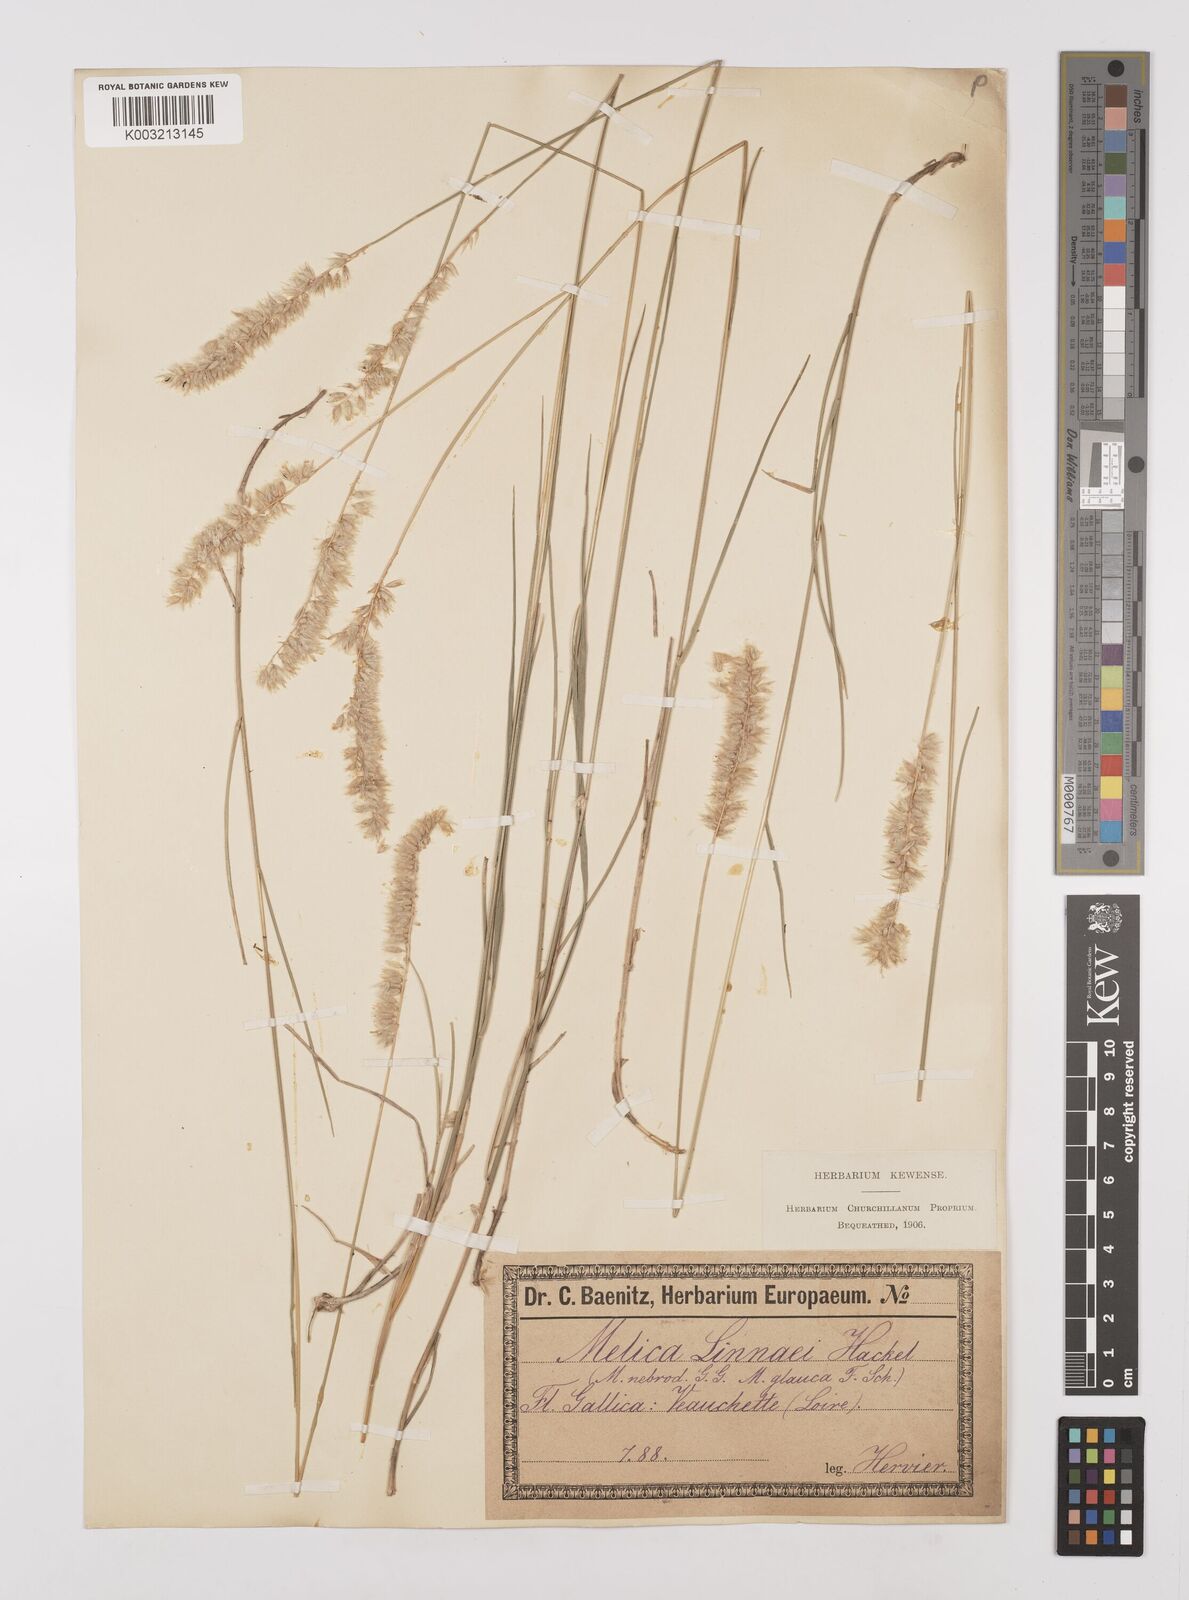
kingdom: Plantae
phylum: Tracheophyta
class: Liliopsida
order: Poales
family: Poaceae
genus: Melica
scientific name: Melica ciliata
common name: Hairy melicgrass
